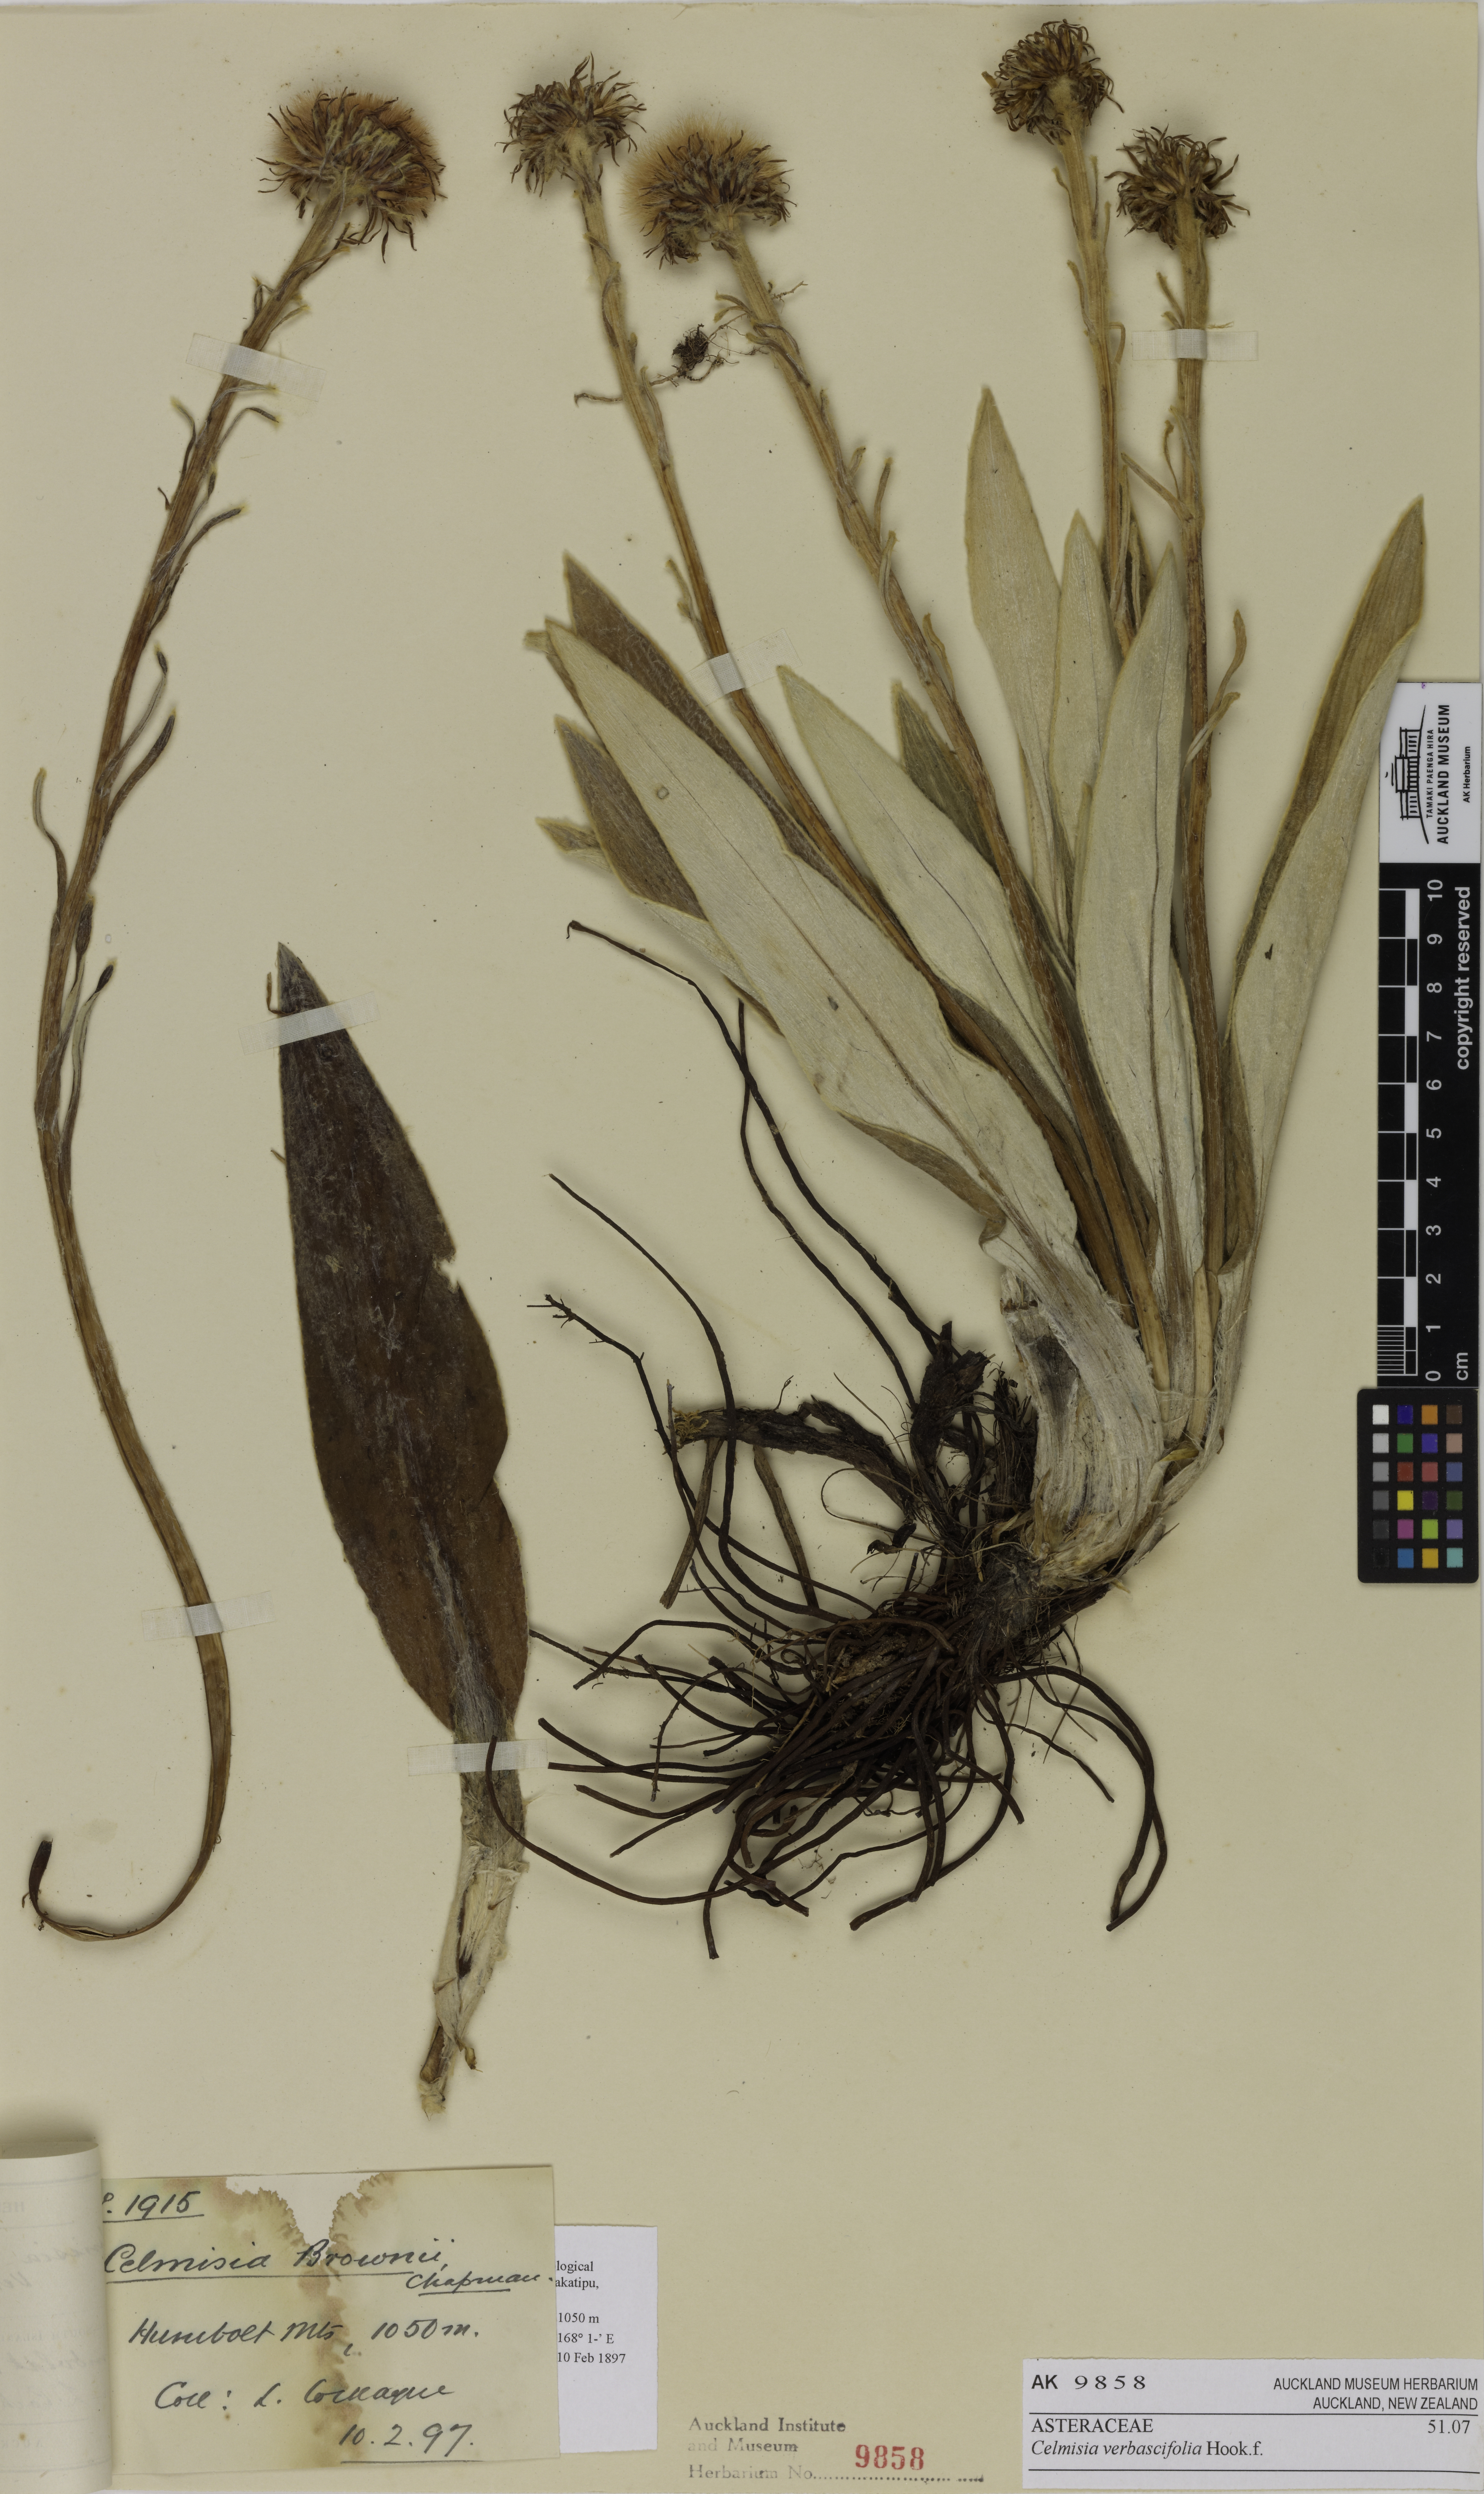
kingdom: Plantae
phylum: Tracheophyta
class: Magnoliopsida
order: Asterales
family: Asteraceae
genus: Celmisia
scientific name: Celmisia verbascifolia
